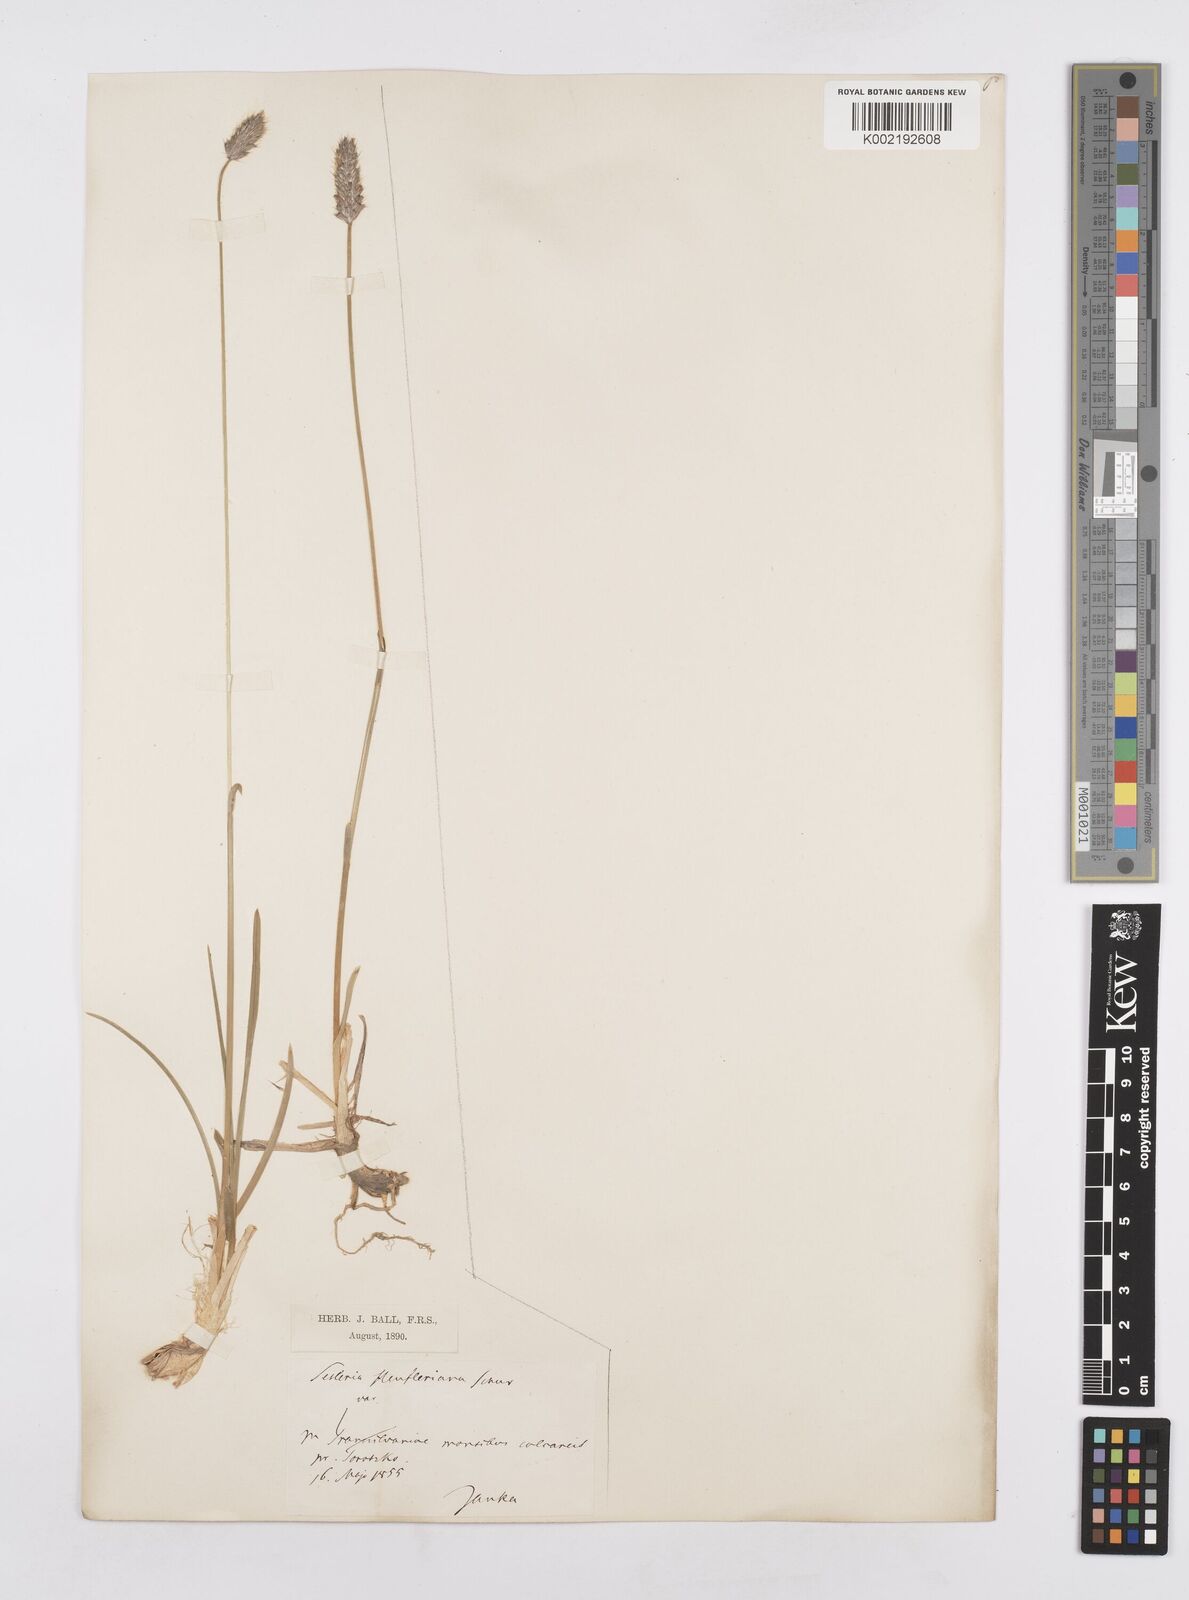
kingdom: Plantae
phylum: Tracheophyta
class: Liliopsida
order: Poales
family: Poaceae
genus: Sesleria
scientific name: Sesleria heufleriana
